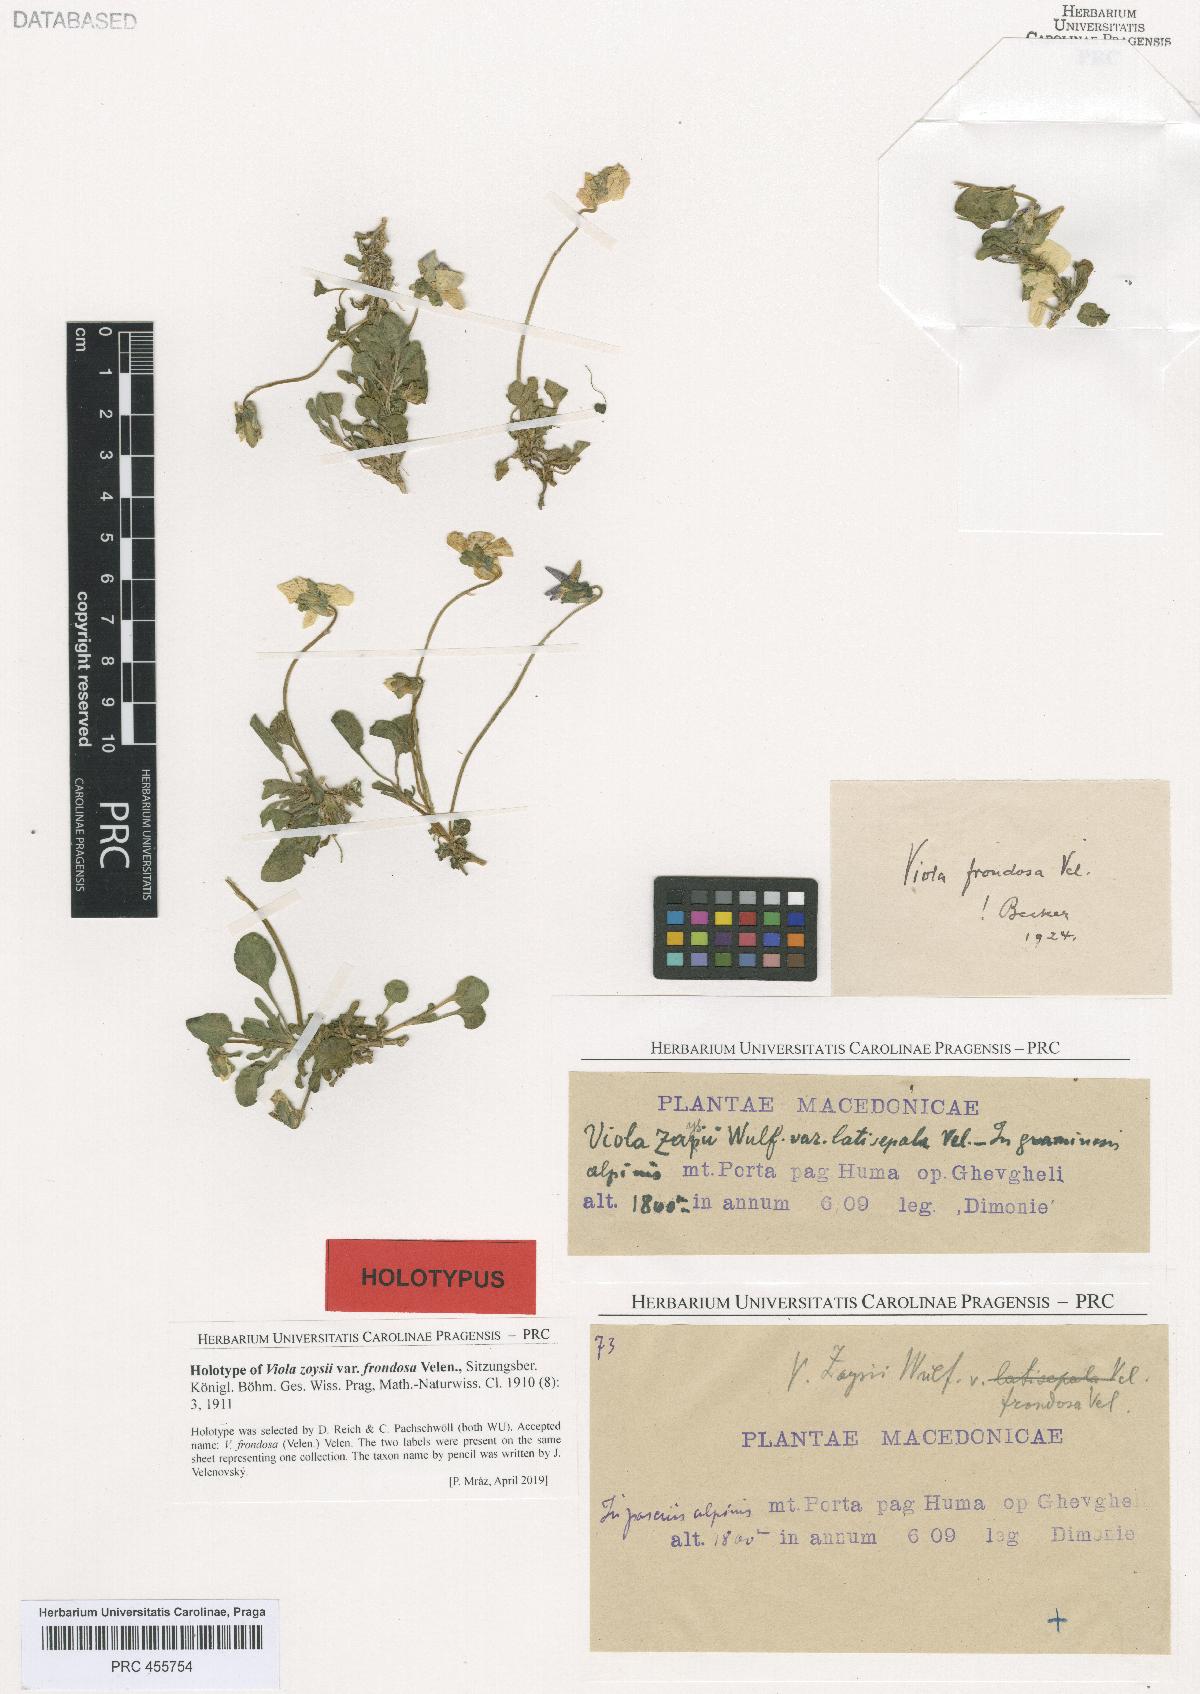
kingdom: Plantae
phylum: Tracheophyta
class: Magnoliopsida
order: Malpighiales
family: Violaceae
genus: Viola
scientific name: Viola frondosa
